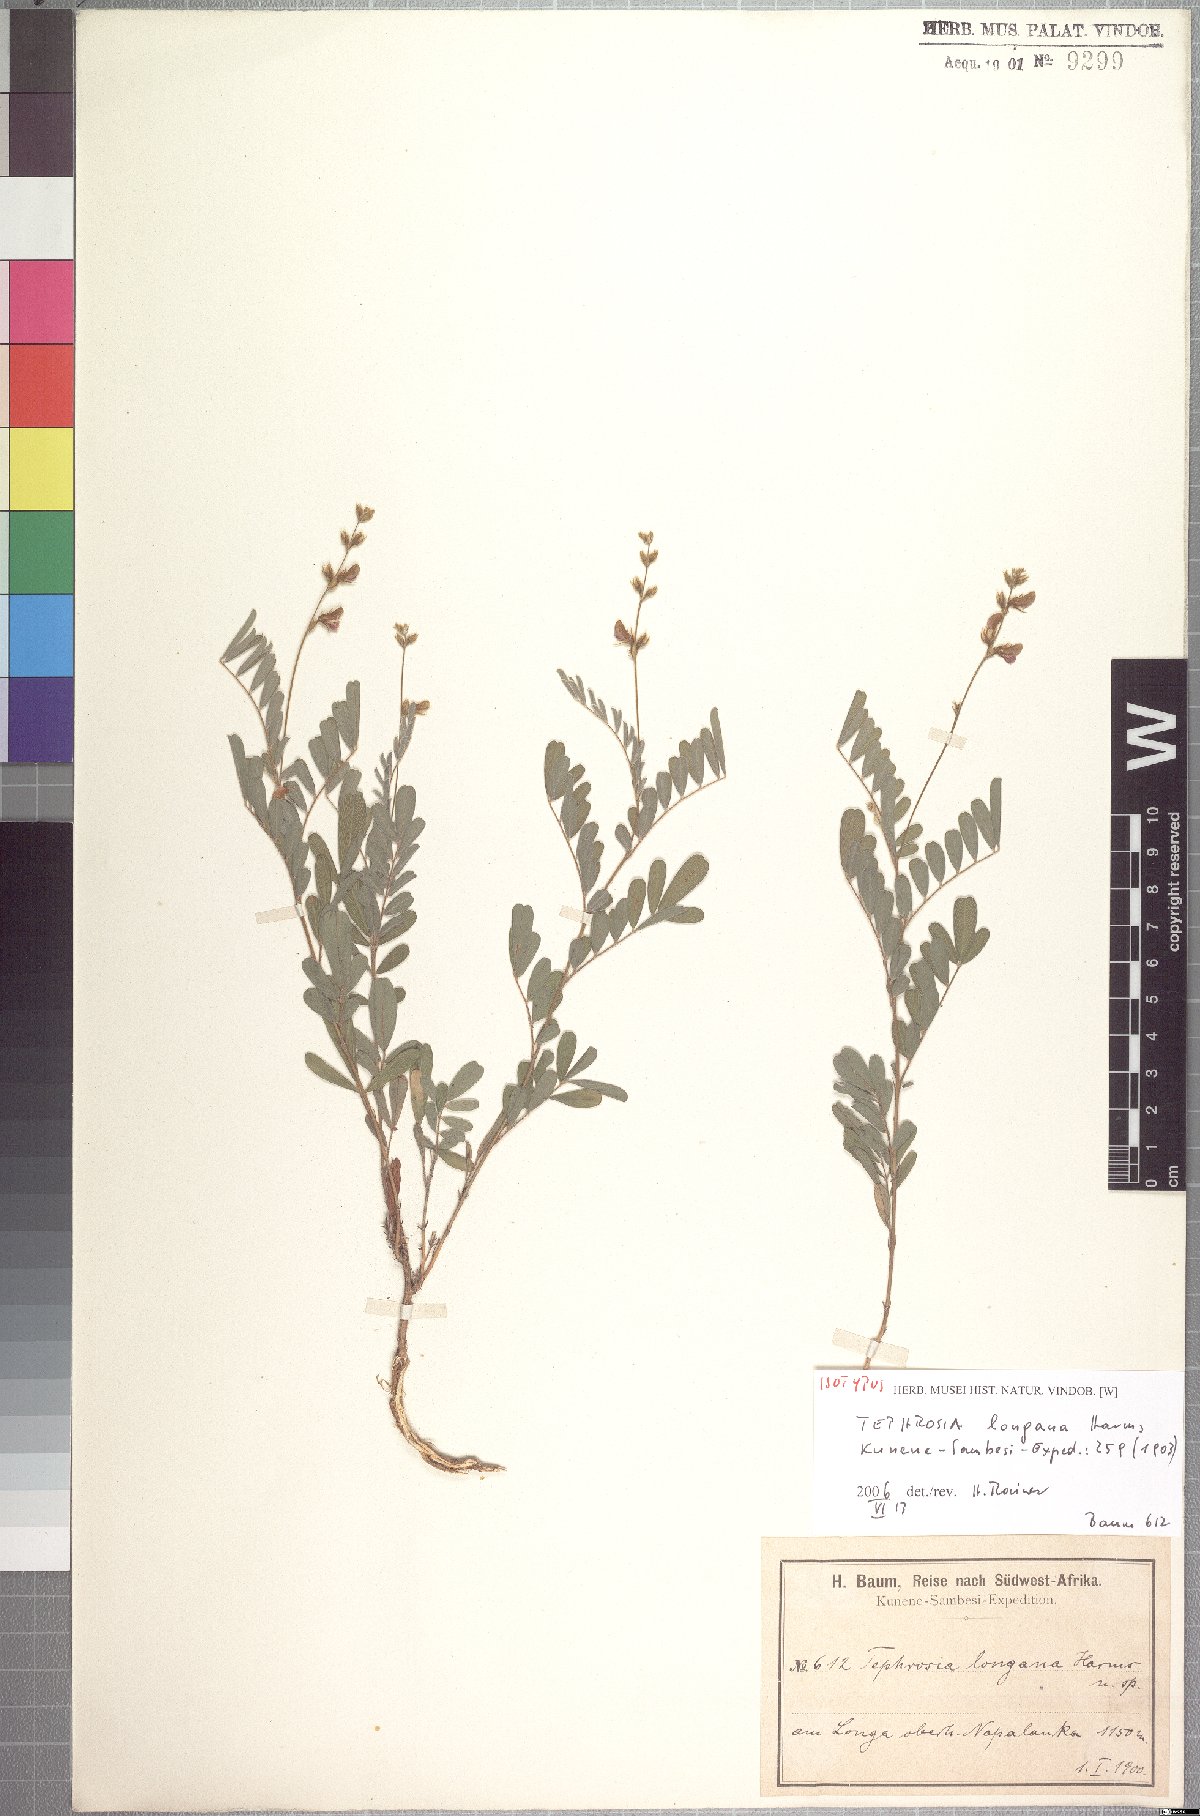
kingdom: Plantae
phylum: Tracheophyta
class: Magnoliopsida
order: Fabales
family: Fabaceae
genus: Tephrosia
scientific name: Tephrosia coronilloides
